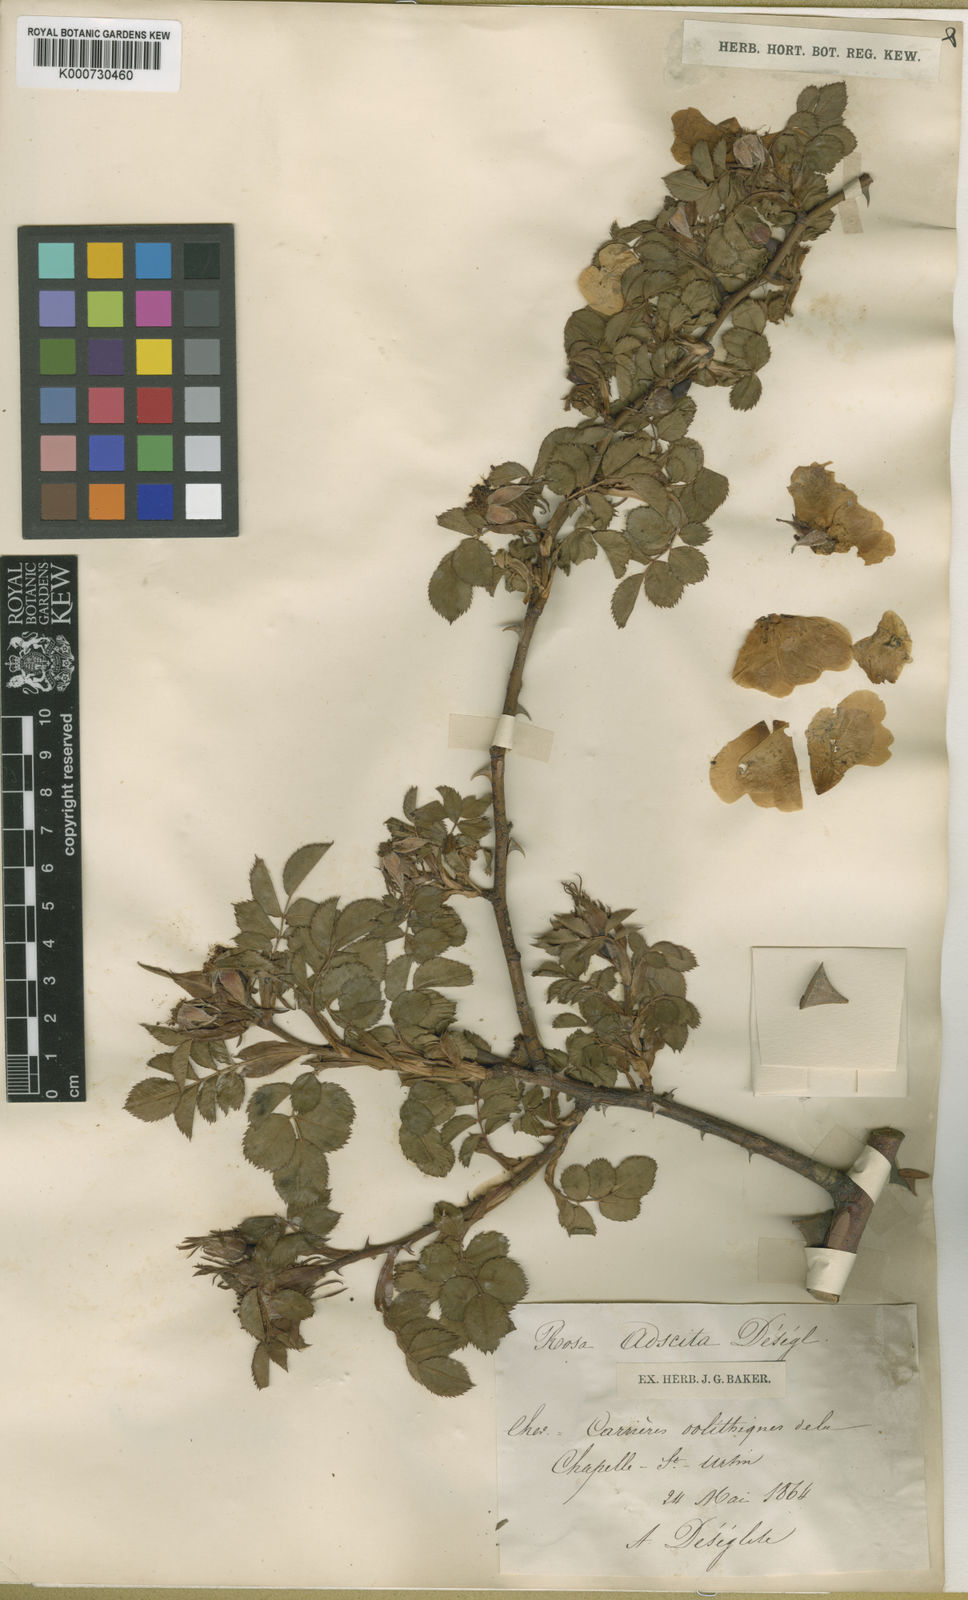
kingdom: Plantae
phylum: Tracheophyta
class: Magnoliopsida
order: Rosales
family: Rosaceae
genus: Rosa
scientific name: Rosa canina
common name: Dog rose
